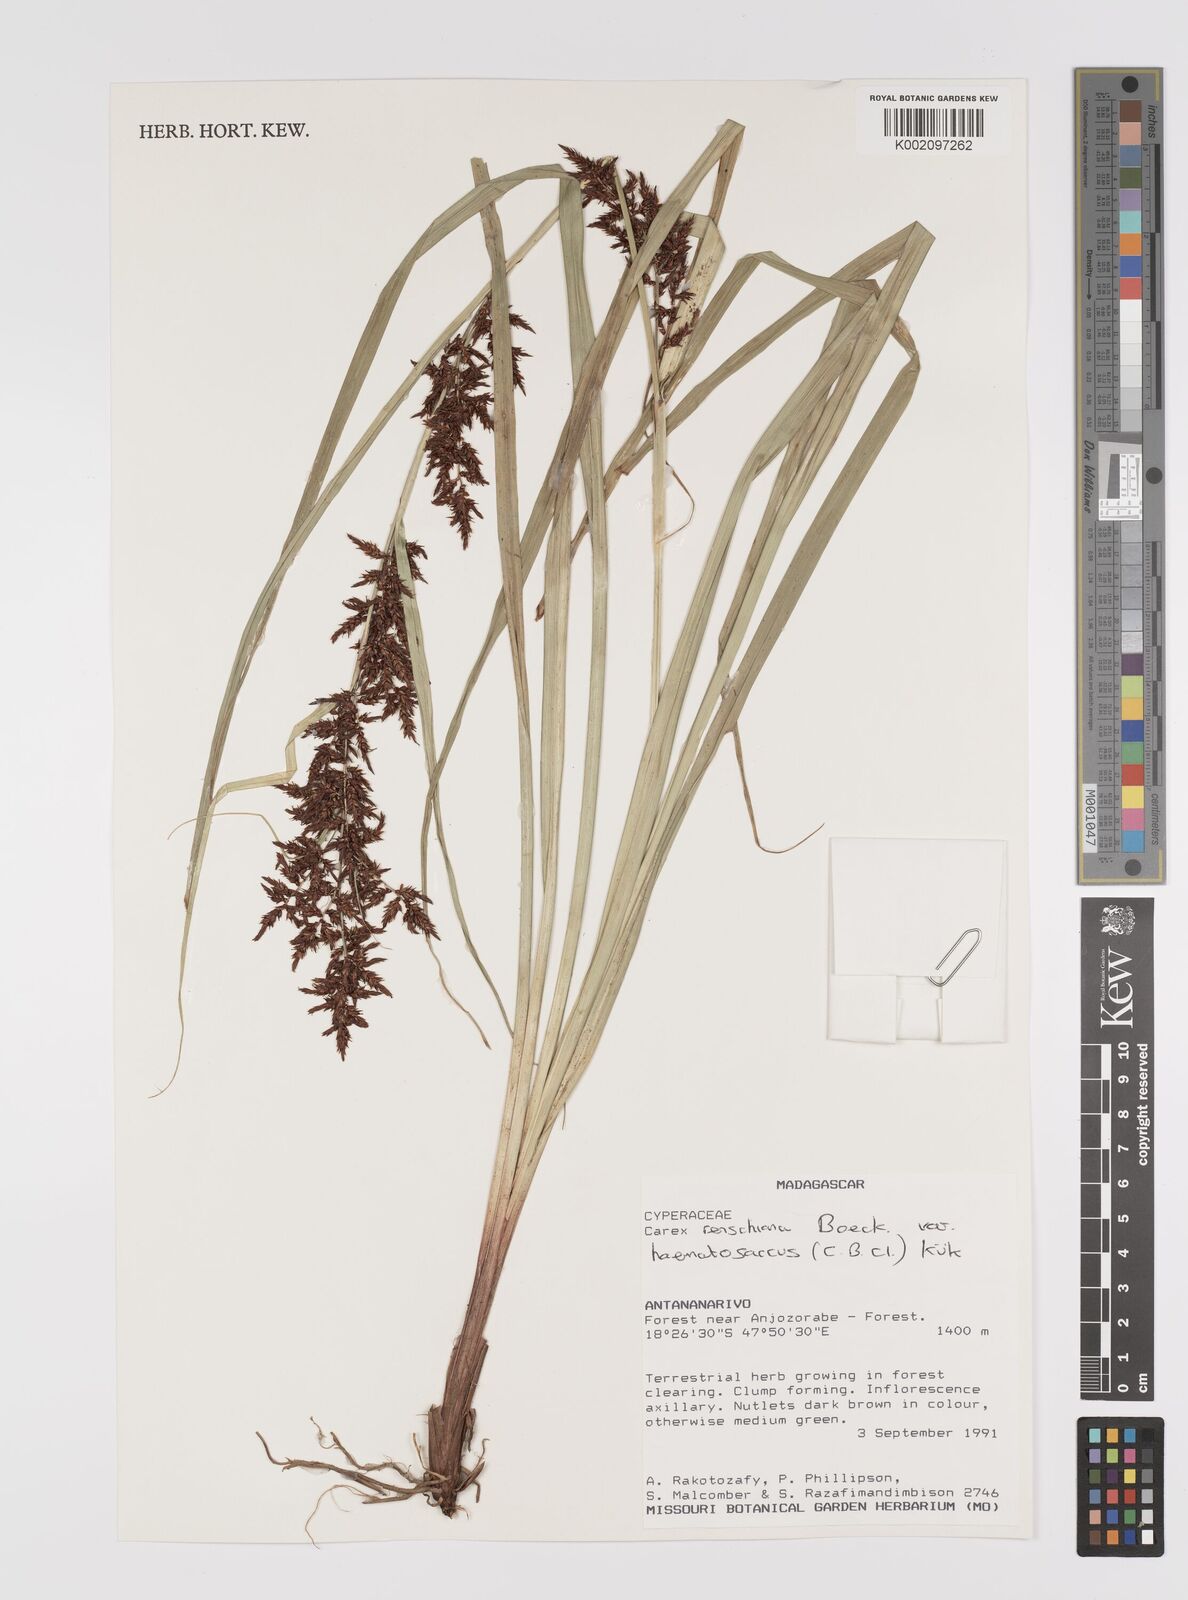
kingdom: Plantae
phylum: Tracheophyta
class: Liliopsida
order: Poales
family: Cyperaceae
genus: Carex
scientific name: Carex renschiana
